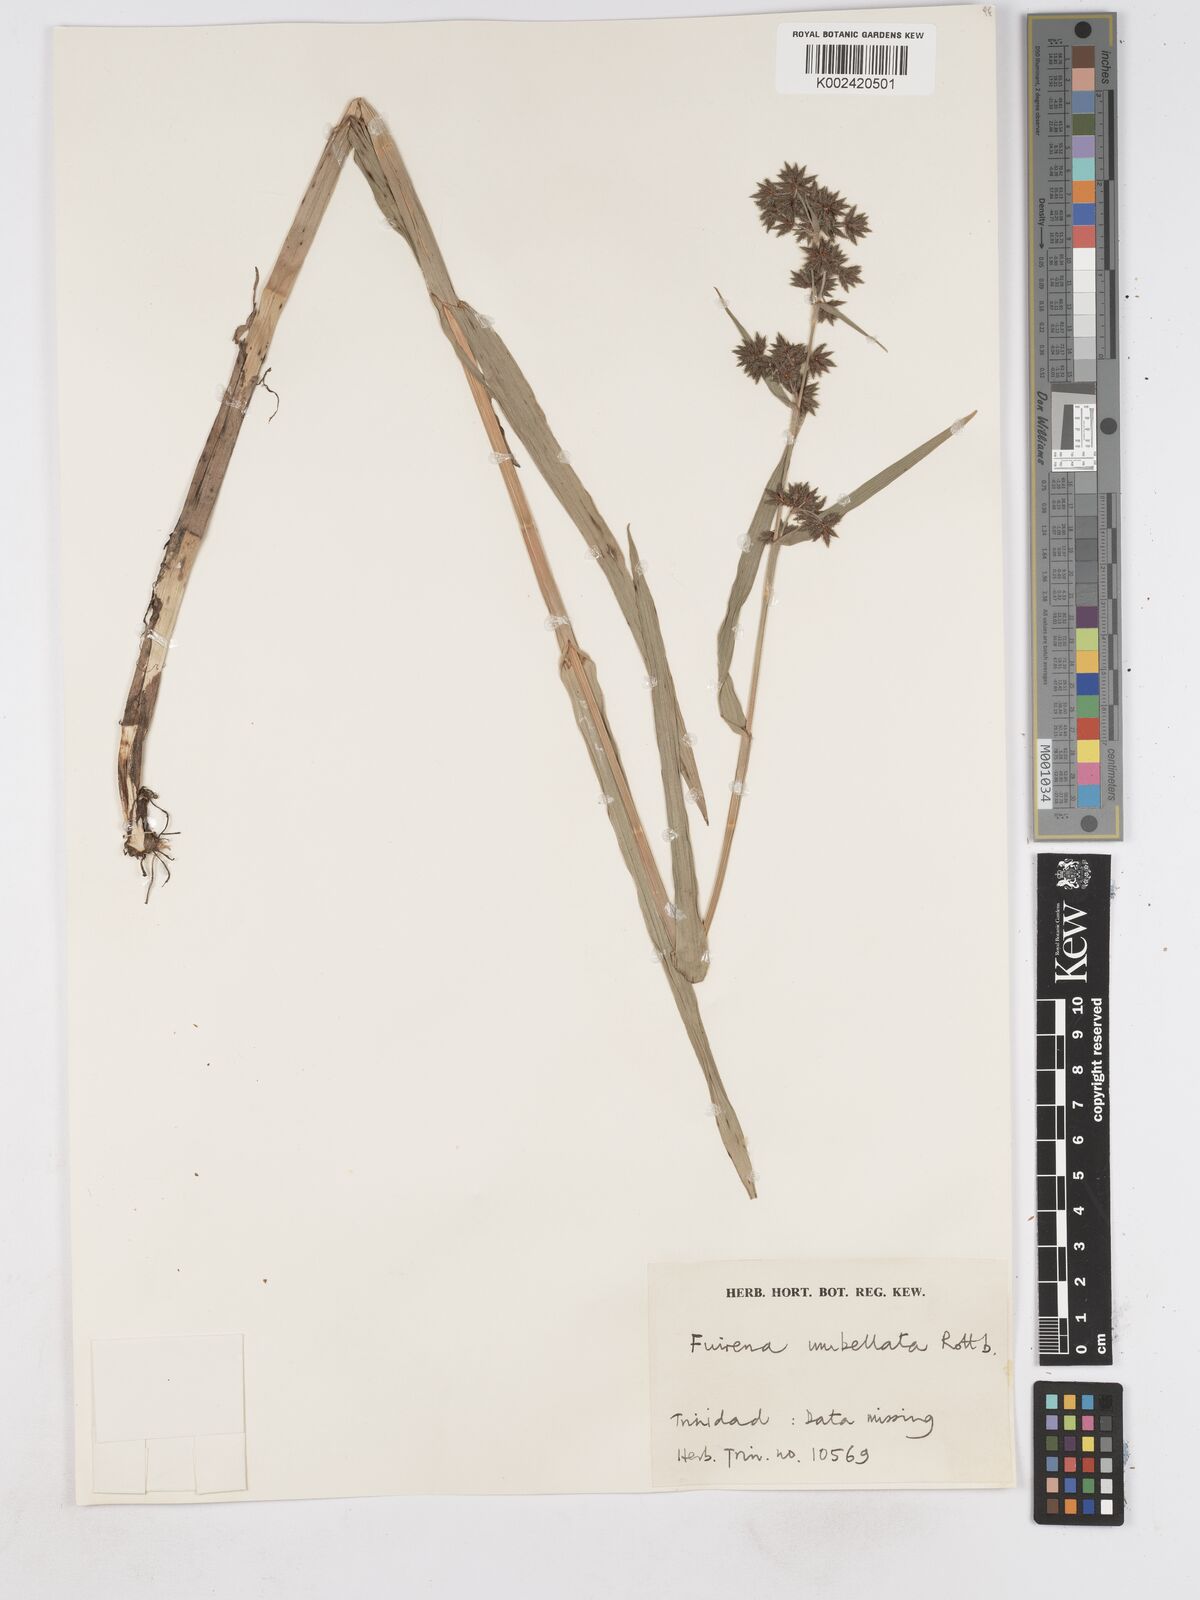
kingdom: Plantae
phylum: Tracheophyta
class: Liliopsida
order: Poales
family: Cyperaceae
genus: Fuirena
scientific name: Fuirena umbellata
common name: Yefen
